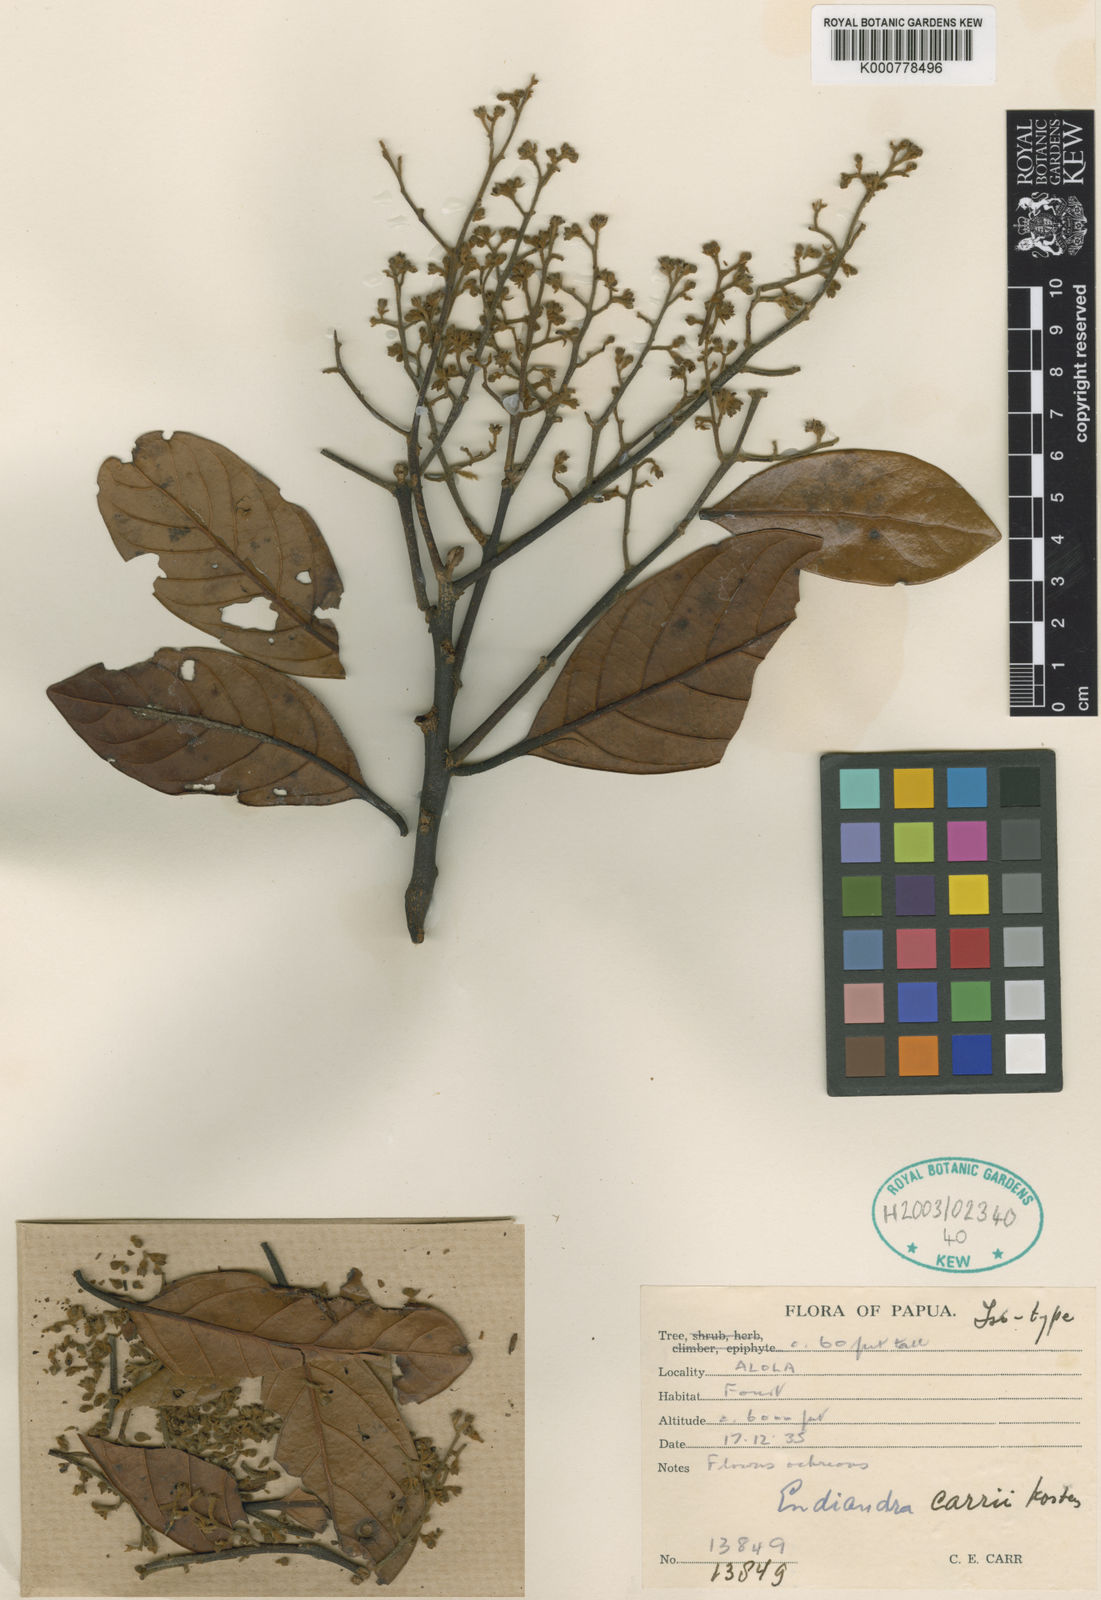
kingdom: Plantae
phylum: Tracheophyta
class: Magnoliopsida
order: Laurales
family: Lauraceae
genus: Endiandra
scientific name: Endiandra carrii
